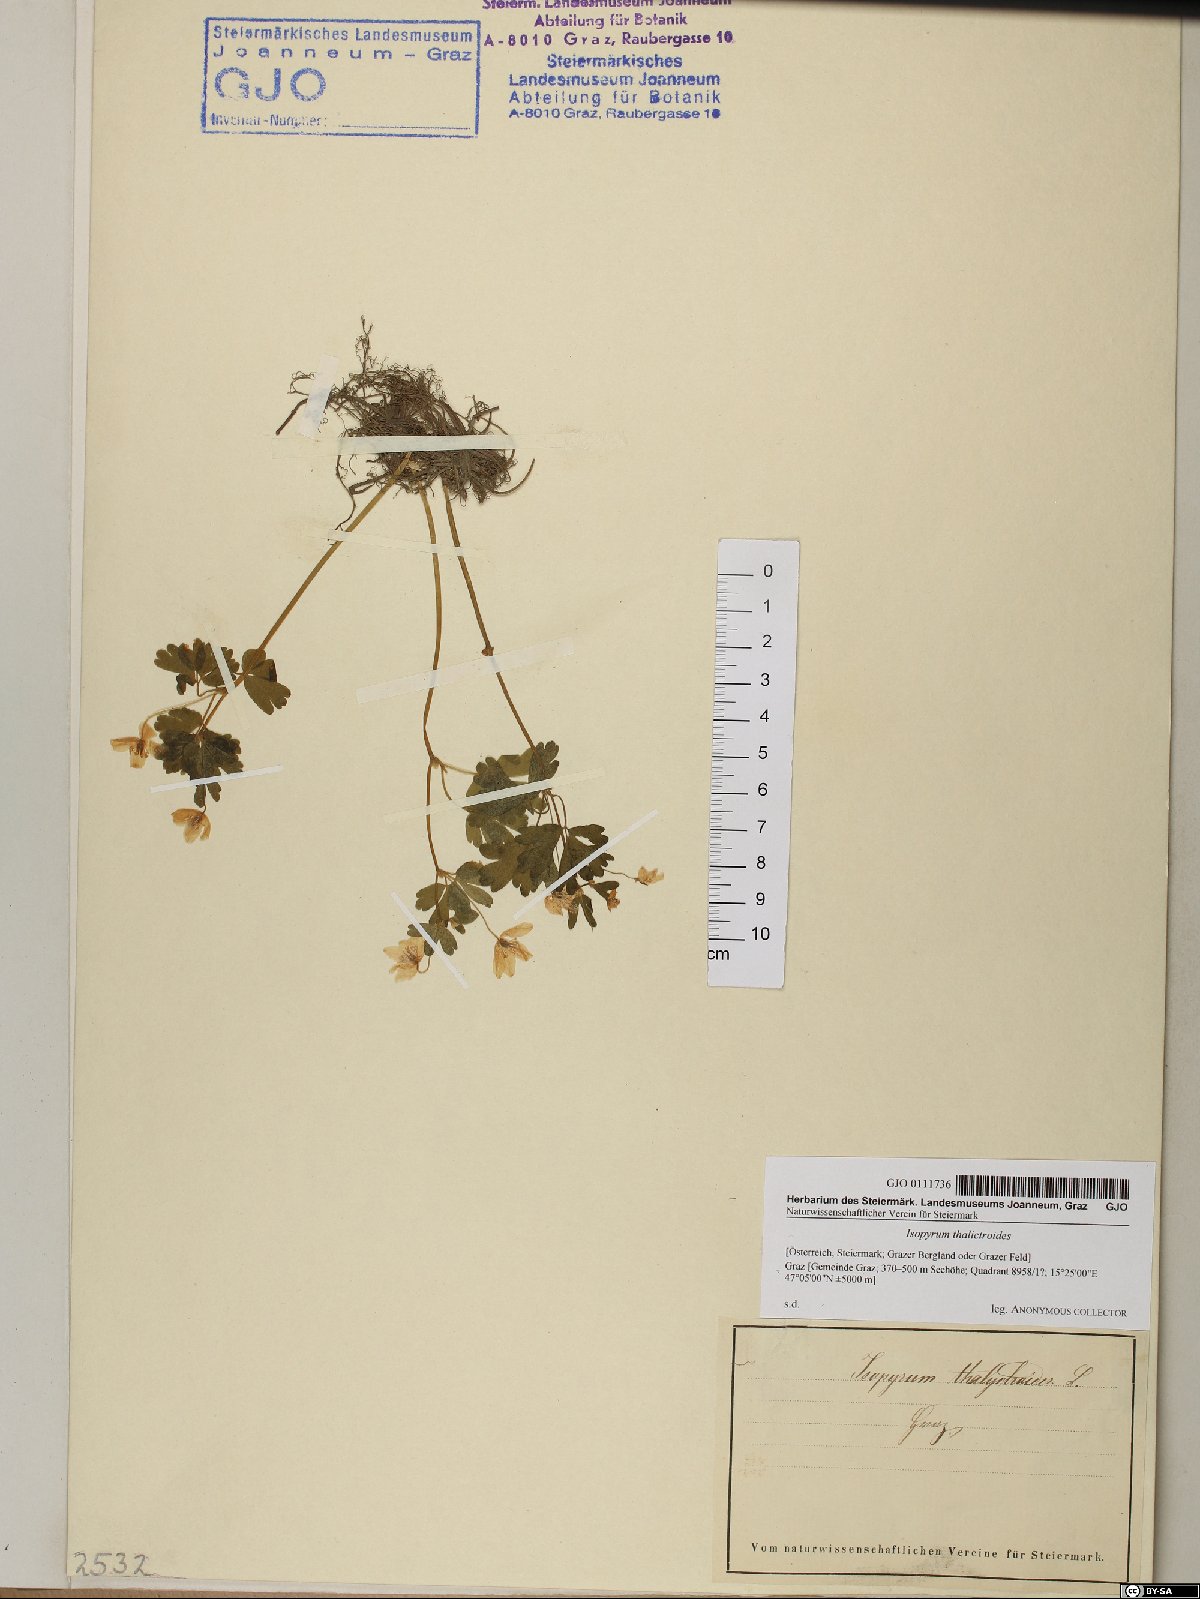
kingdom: Plantae
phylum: Tracheophyta
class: Magnoliopsida
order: Ranunculales
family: Ranunculaceae
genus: Isopyrum
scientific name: Isopyrum thalictroides
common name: Isopyrum
